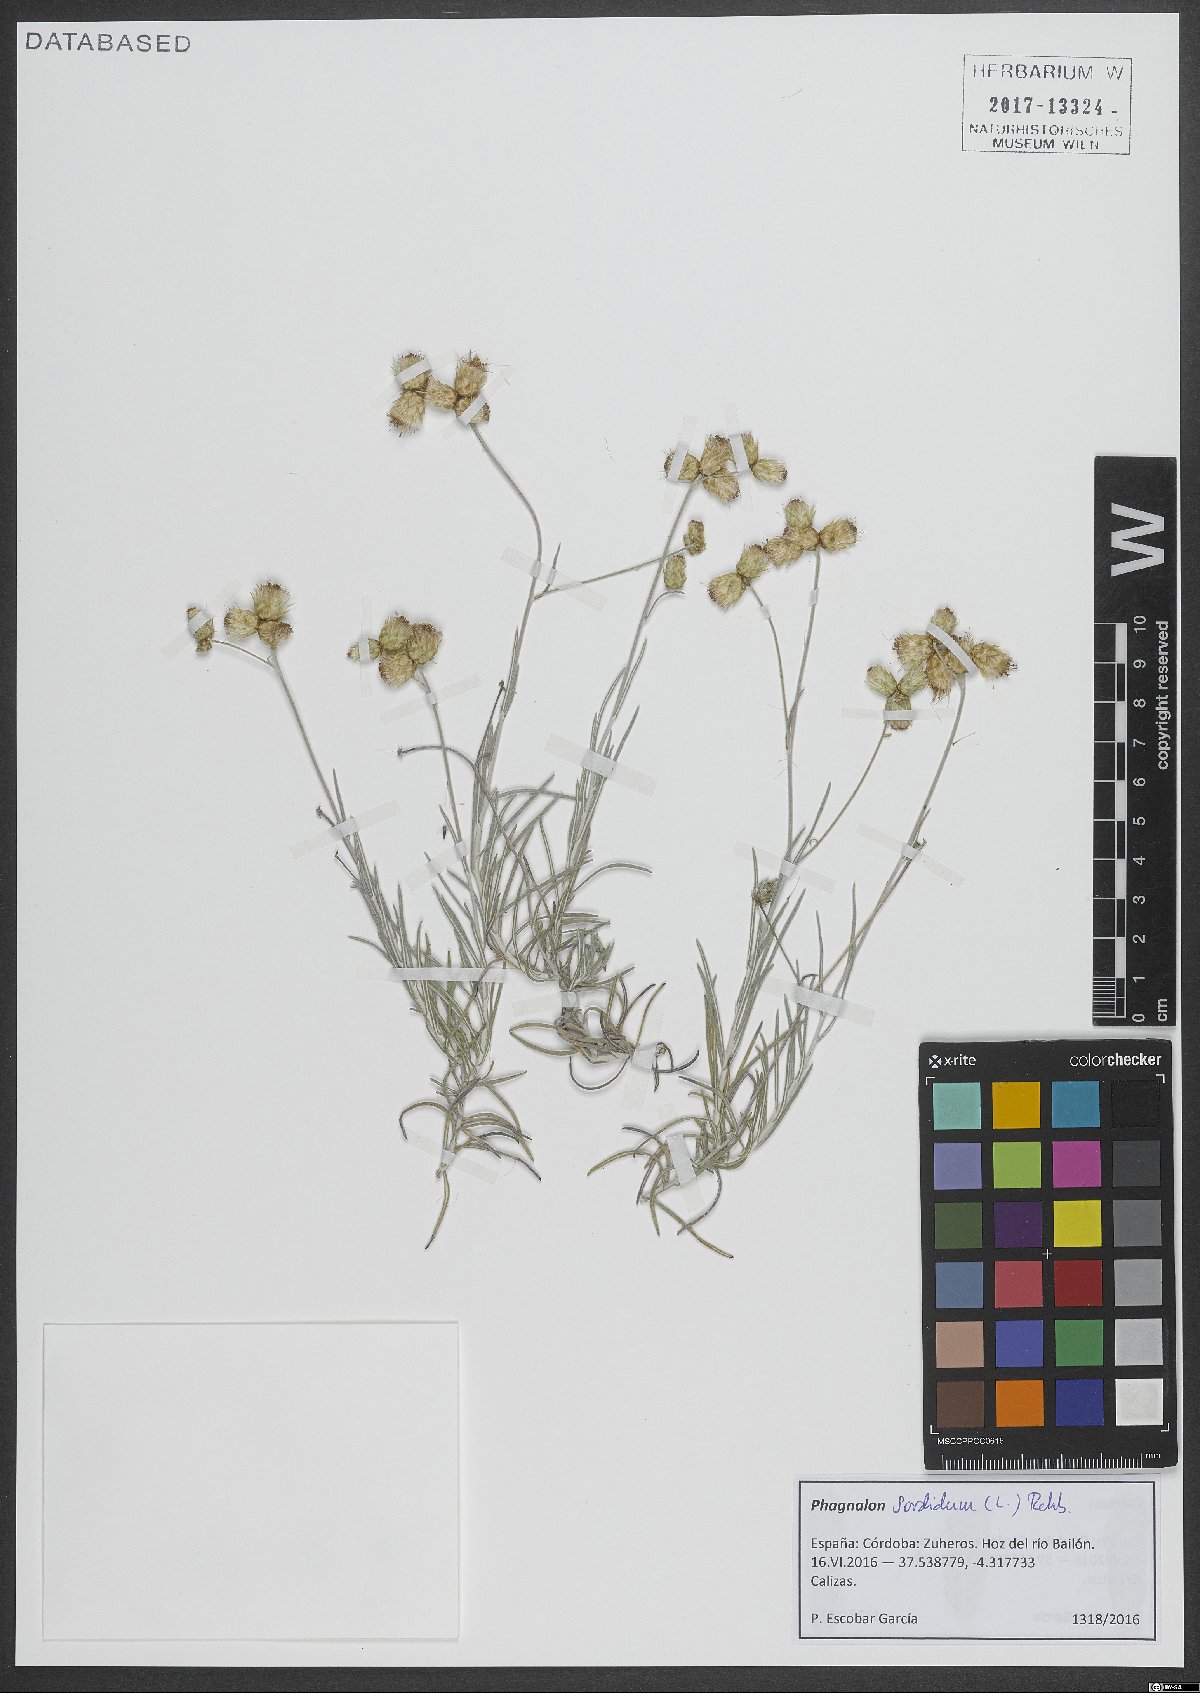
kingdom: Plantae
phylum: Tracheophyta
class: Magnoliopsida
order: Asterales
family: Asteraceae
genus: Phagnalon
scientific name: Phagnalon sordidum
